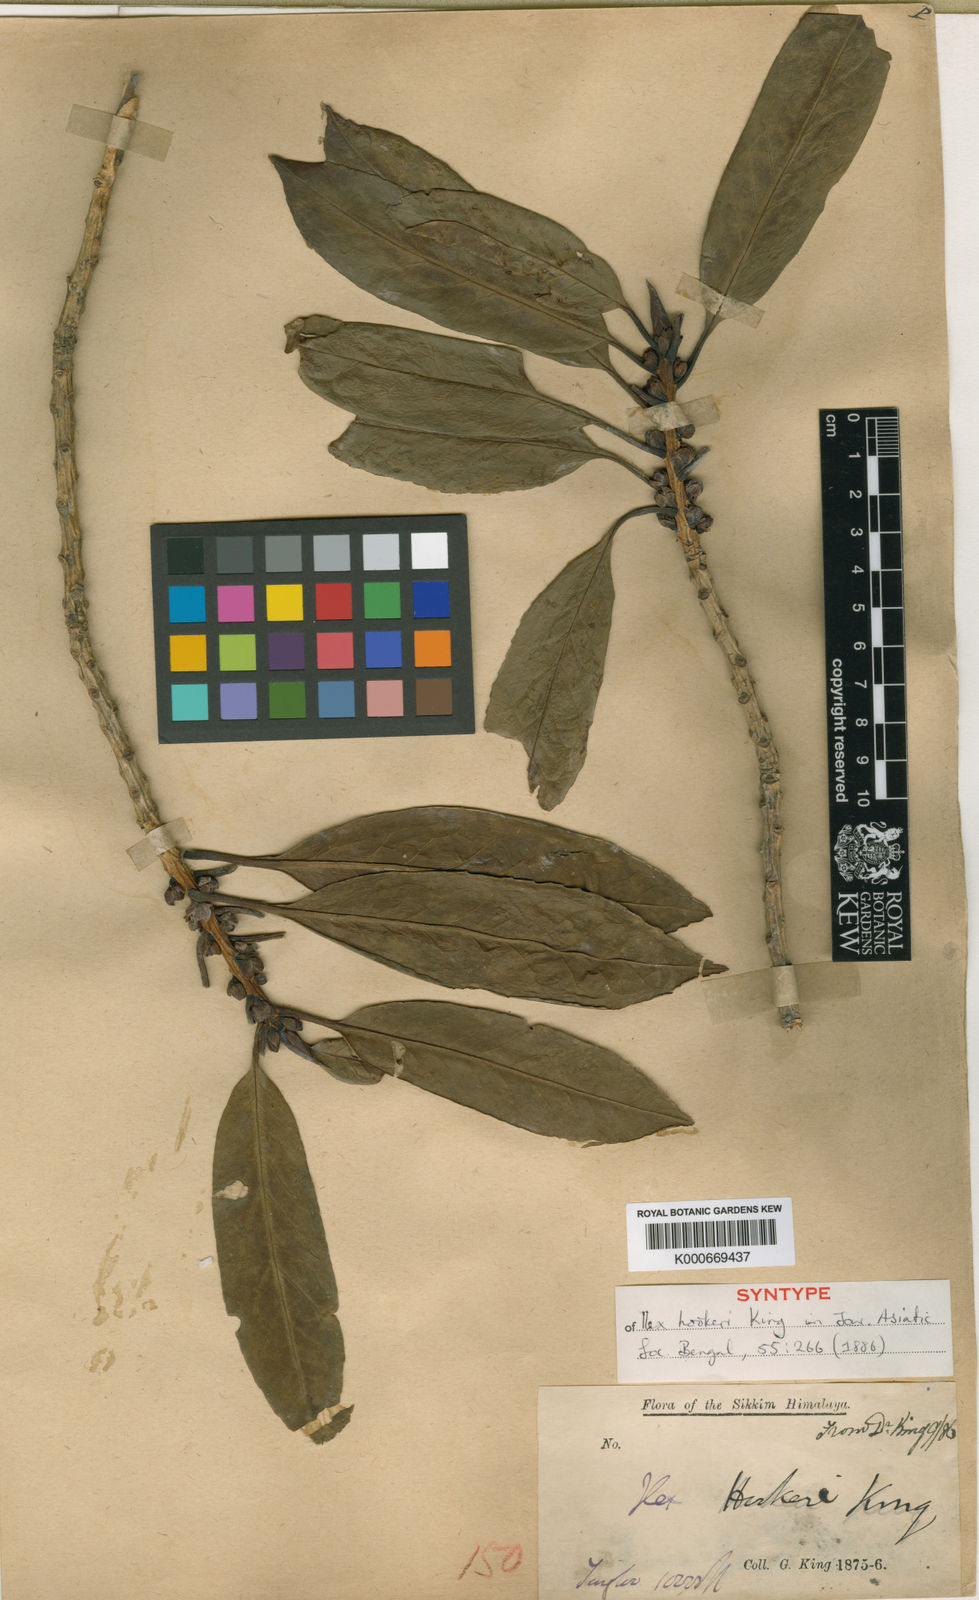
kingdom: Plantae
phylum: Tracheophyta
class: Magnoliopsida
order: Aquifoliales
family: Aquifoliaceae
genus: Ilex
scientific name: Ilex hookeri
